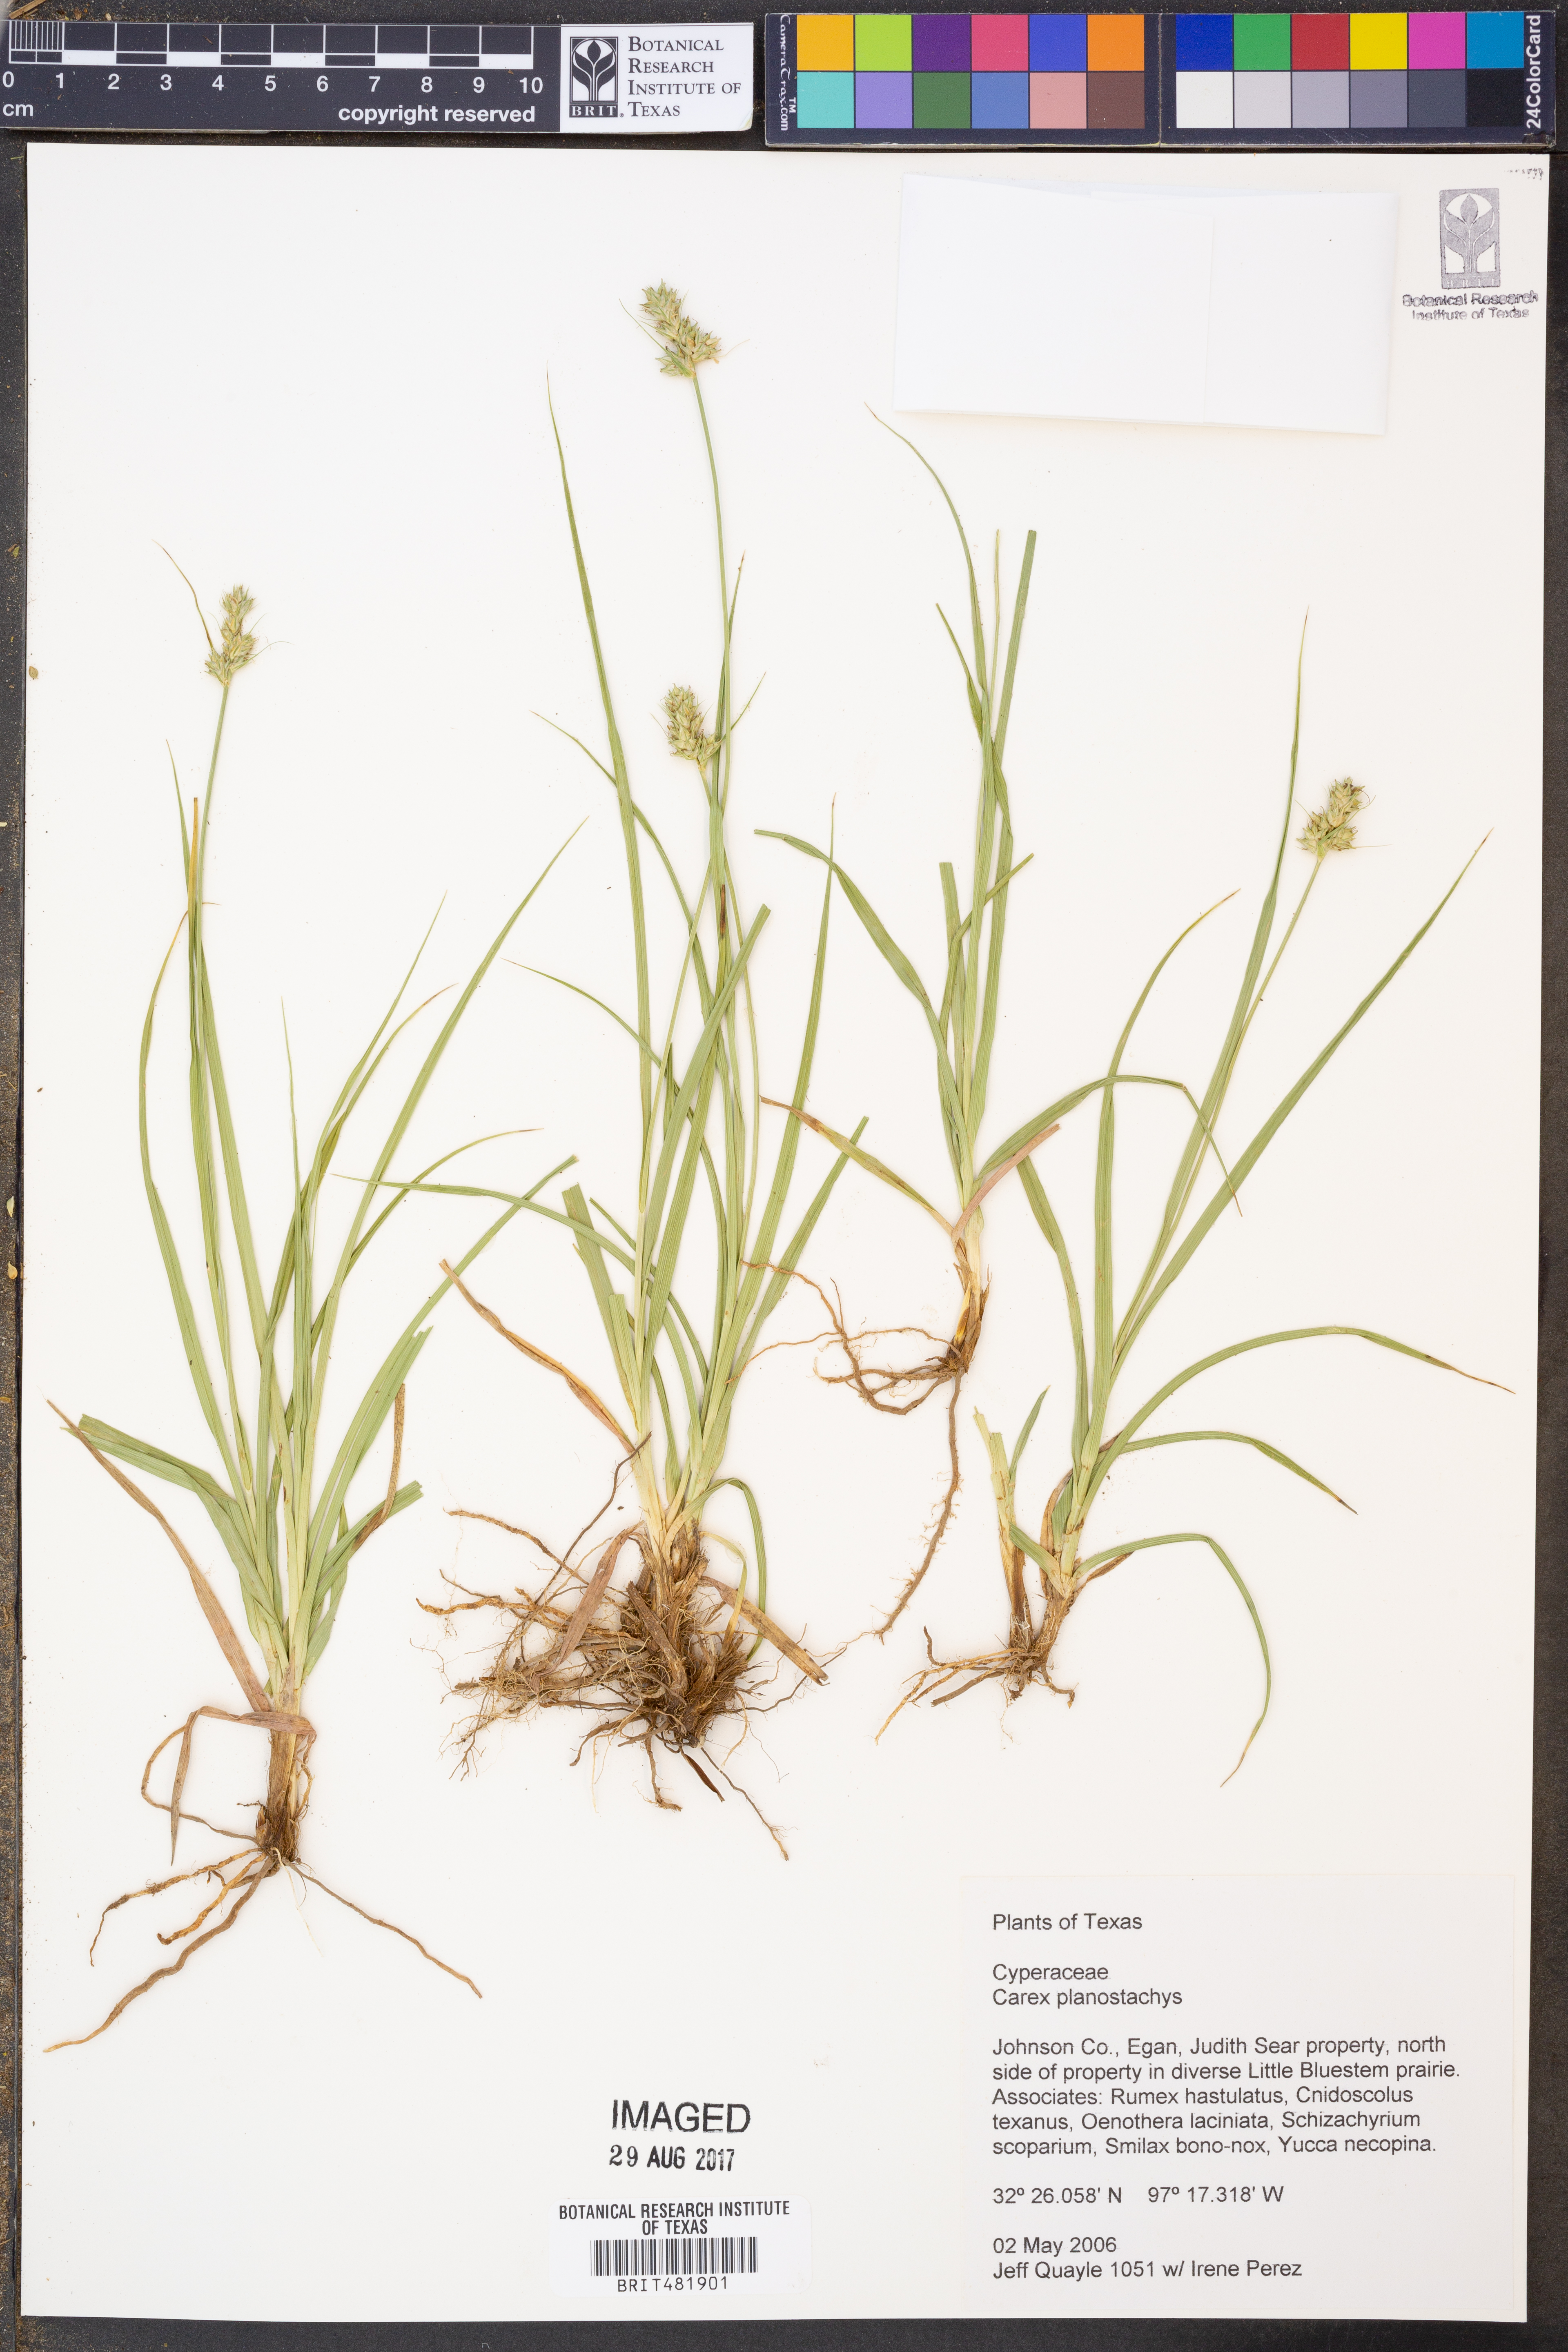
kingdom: Plantae
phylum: Tracheophyta
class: Liliopsida
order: Poales
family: Cyperaceae
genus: Carex
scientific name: Carex planostachys
